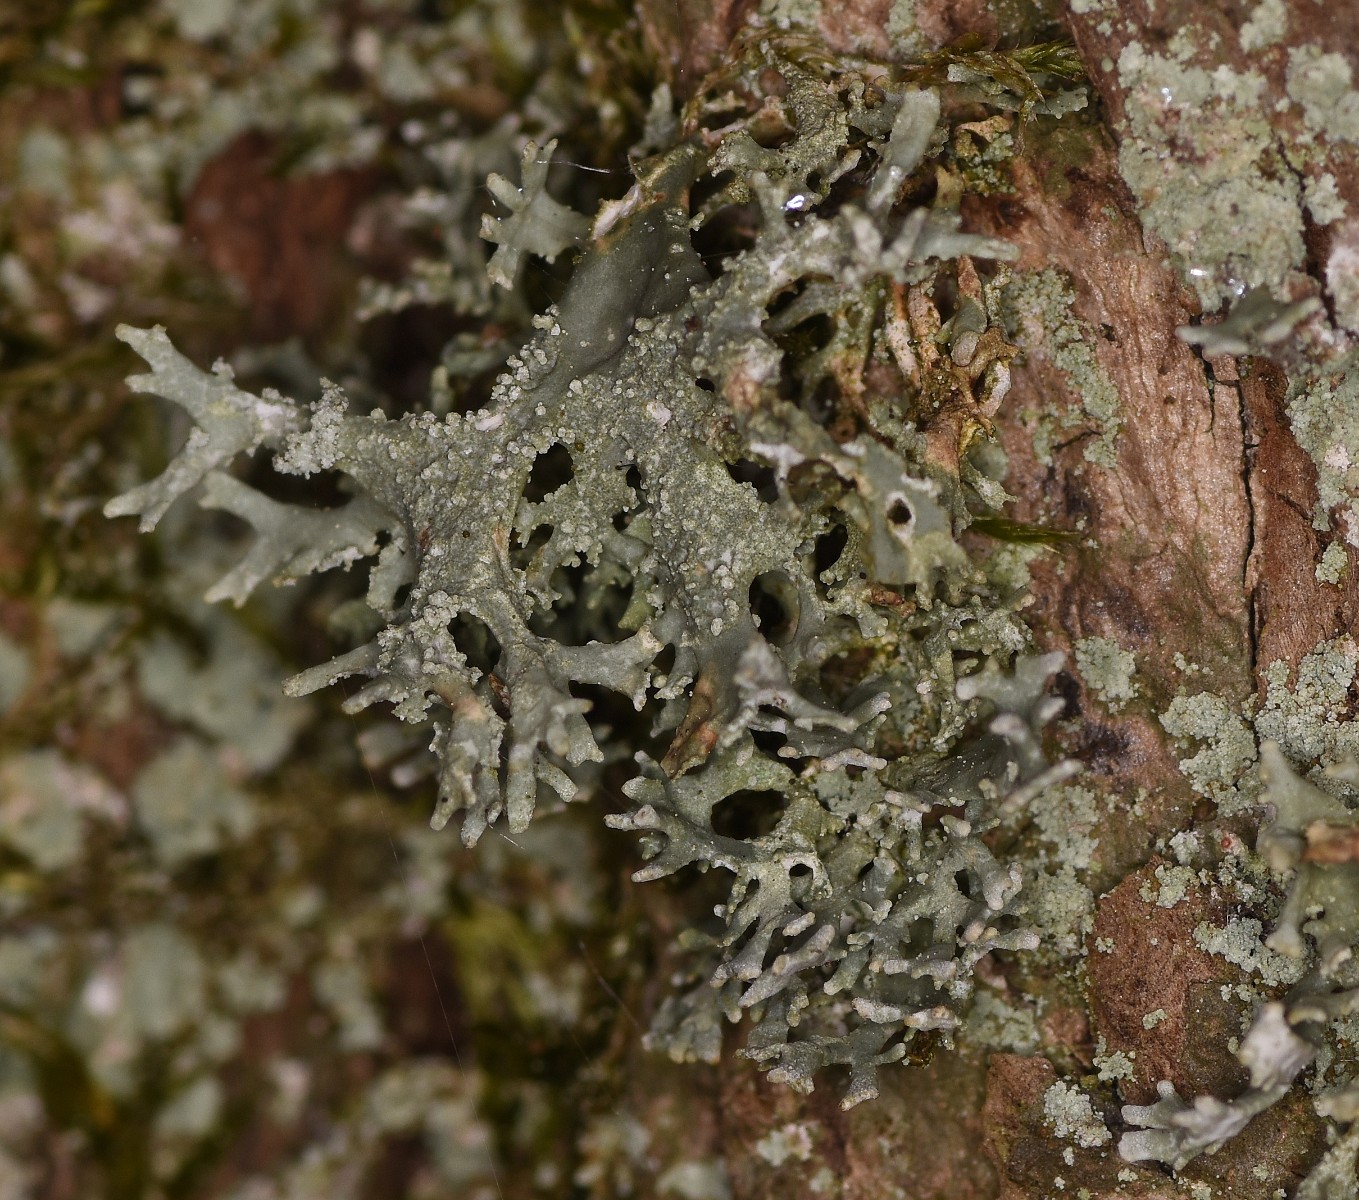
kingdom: Fungi
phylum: Ascomycota
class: Lecanoromycetes
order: Lecanorales
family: Parmeliaceae
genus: Evernia
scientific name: Evernia prunastri
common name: almindelig slåenlav
